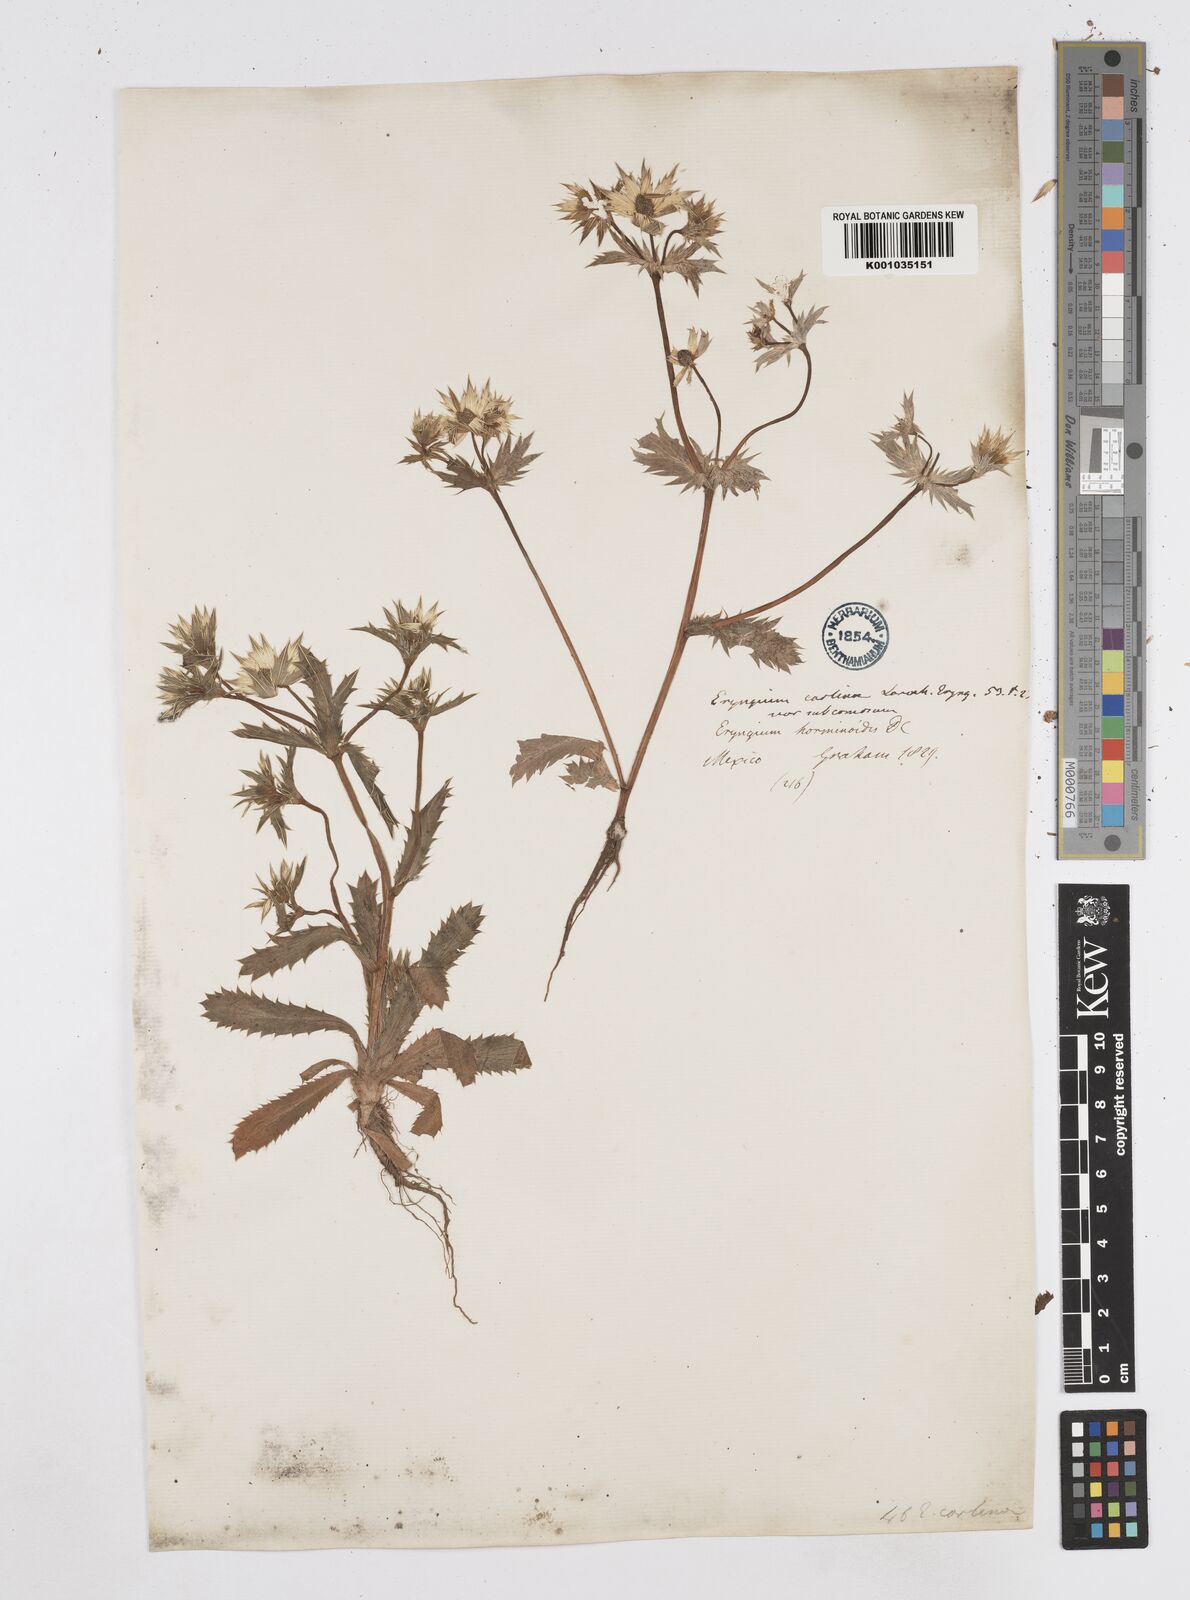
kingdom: Plantae
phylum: Tracheophyta
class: Magnoliopsida
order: Apiales
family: Apiaceae
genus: Eryngium
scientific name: Eryngium carlinae
